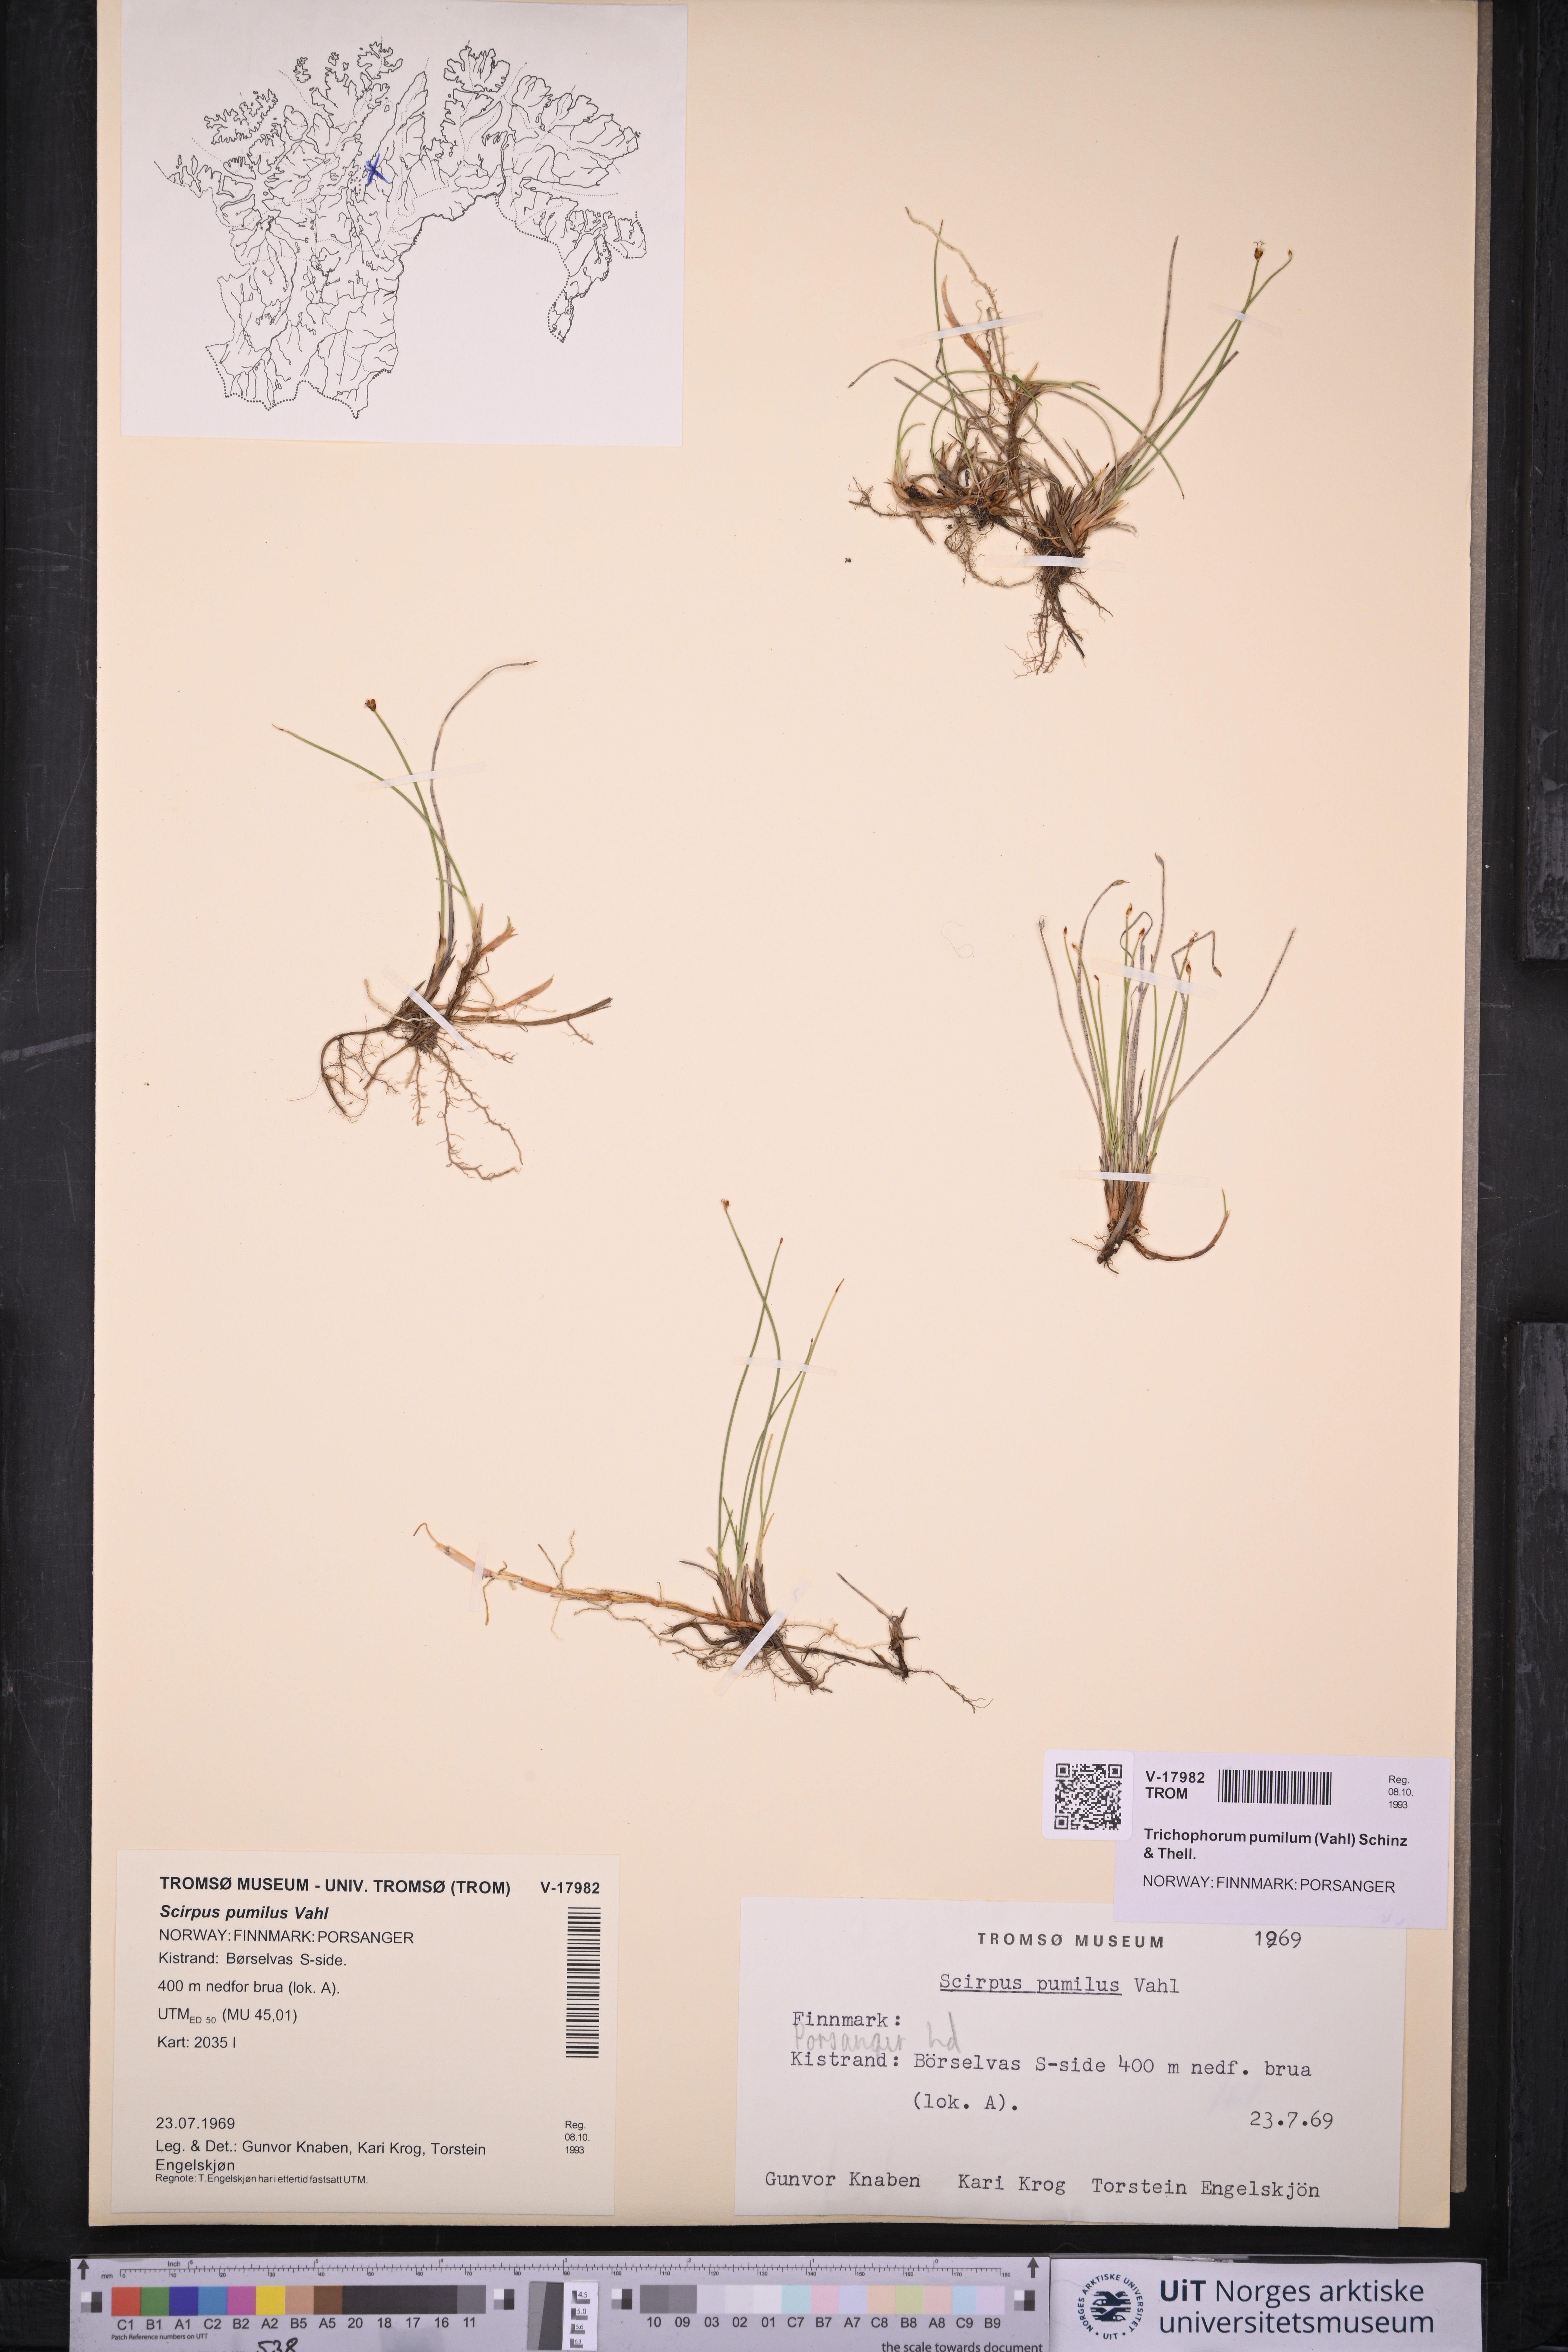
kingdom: Plantae
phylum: Tracheophyta
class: Liliopsida
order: Poales
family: Cyperaceae
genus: Trichophorum
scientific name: Trichophorum pumilum
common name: Rolland's bulrush
